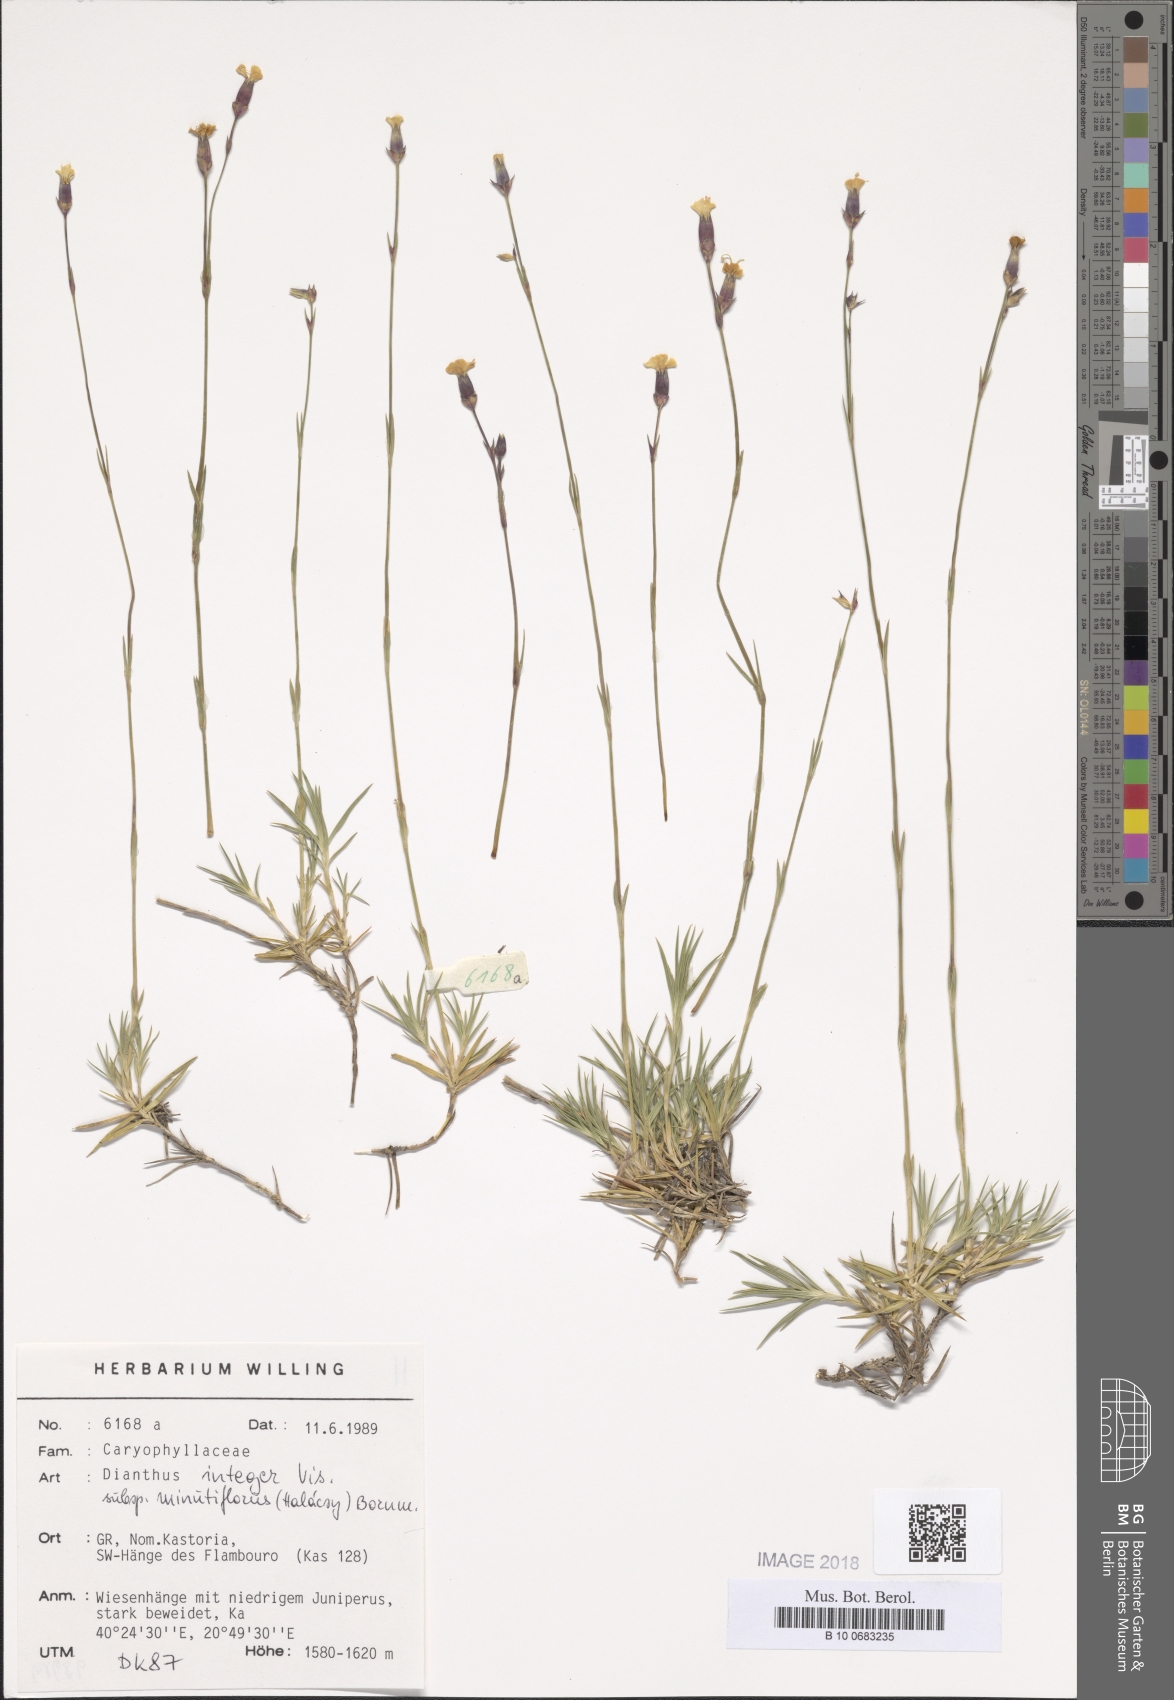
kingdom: Plantae
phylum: Tracheophyta
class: Magnoliopsida
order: Caryophyllales
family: Caryophyllaceae
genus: Dianthus
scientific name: Dianthus integer
